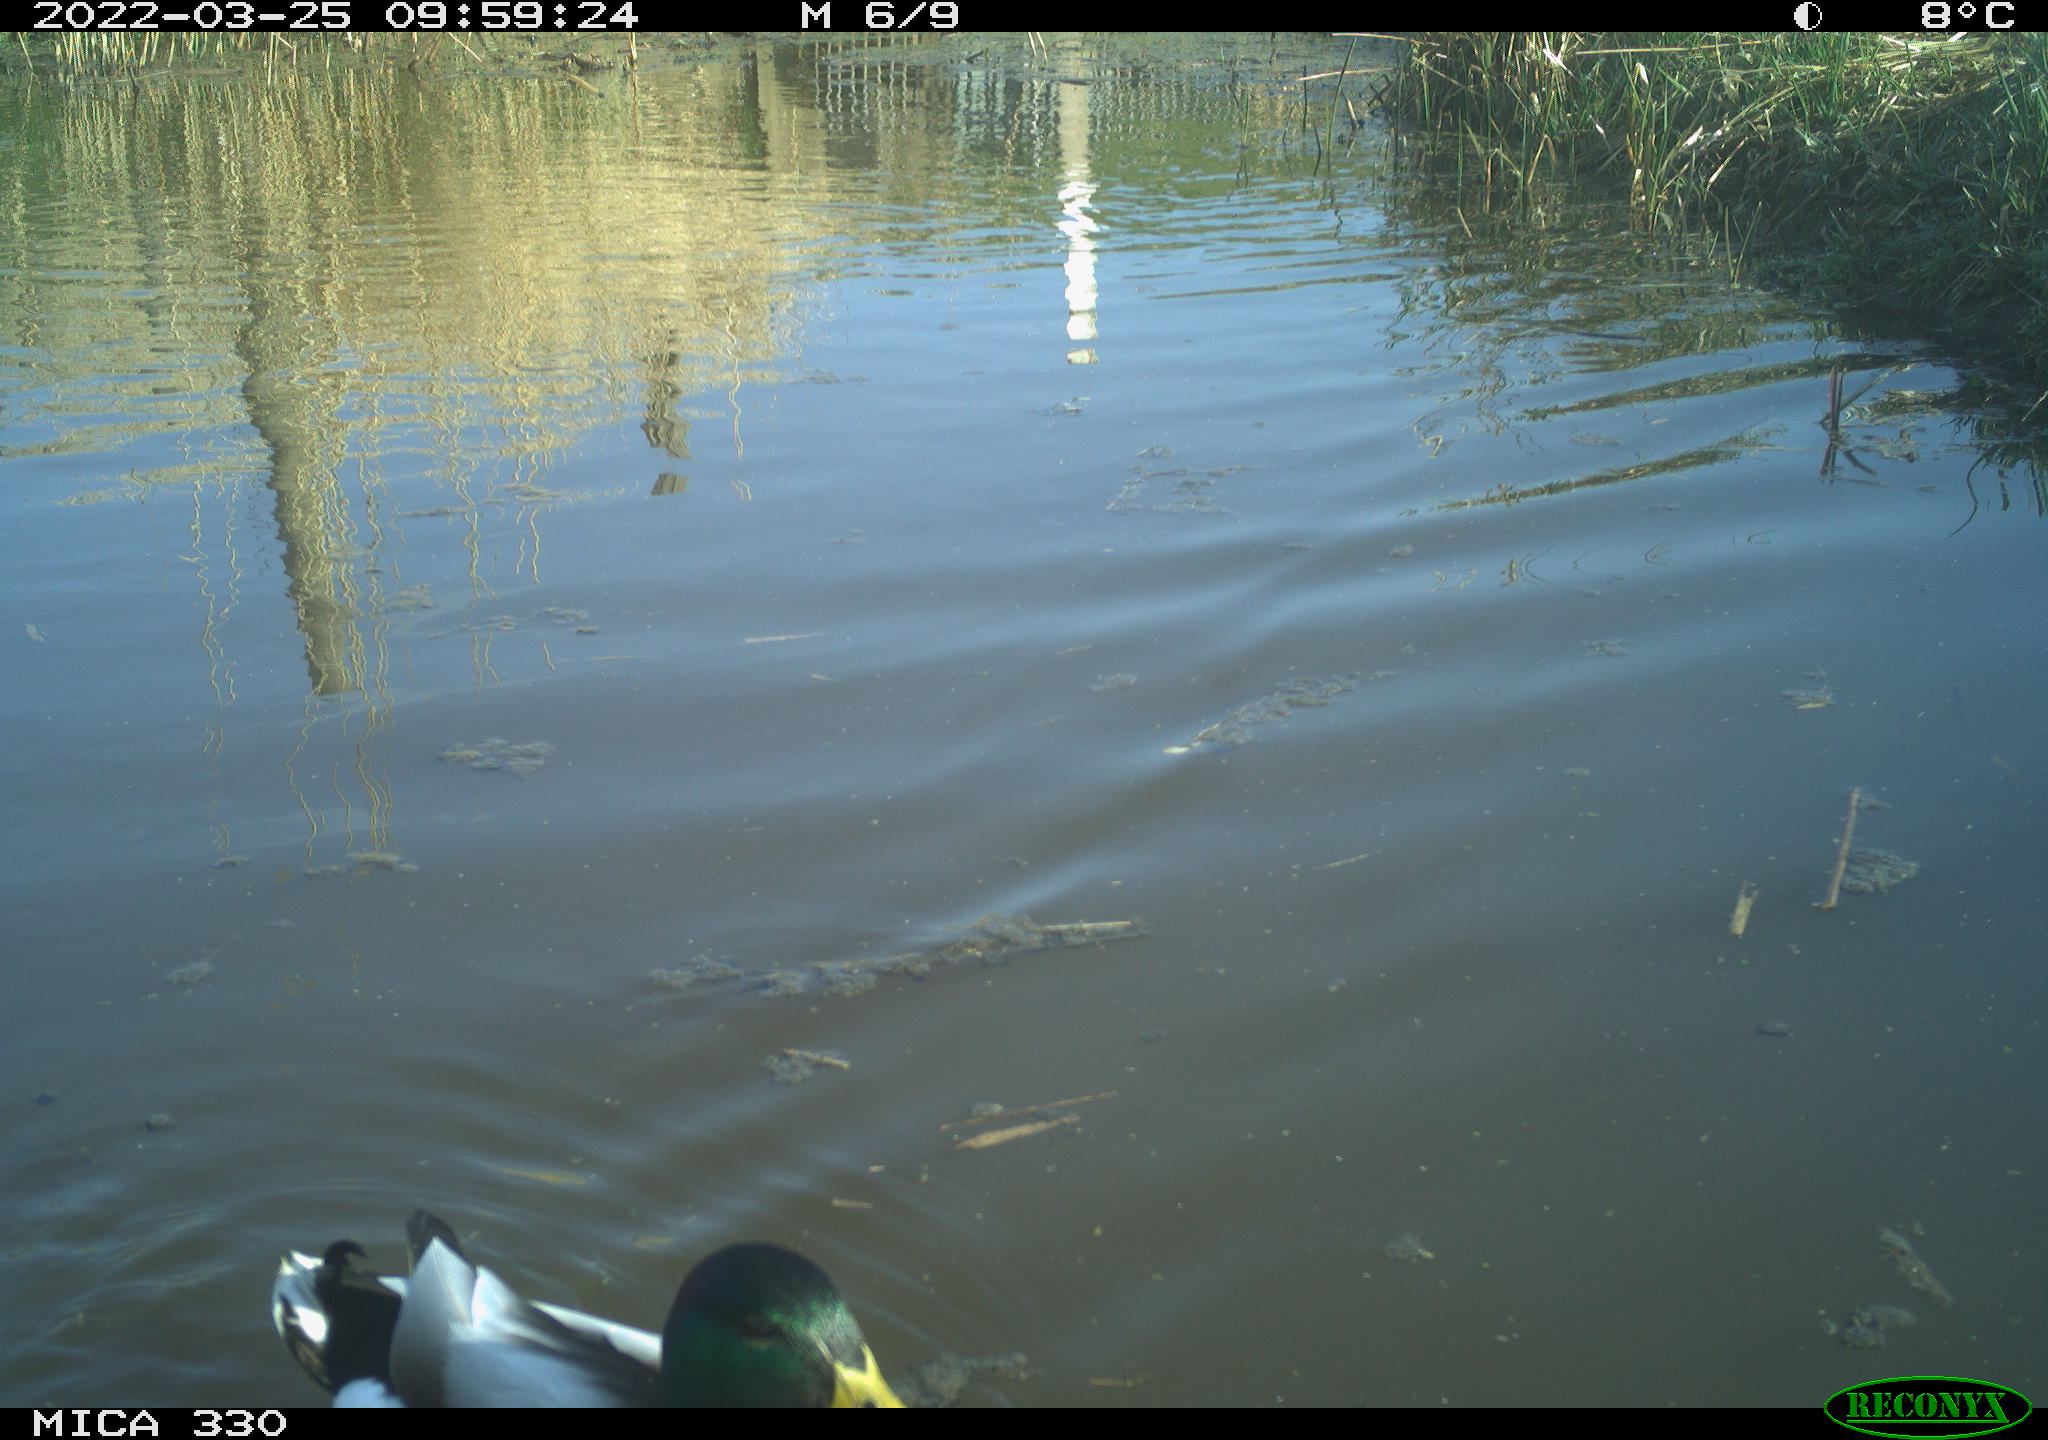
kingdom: Animalia
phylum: Chordata
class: Aves
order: Anseriformes
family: Anatidae
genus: Anas
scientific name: Anas platyrhynchos
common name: Mallard
